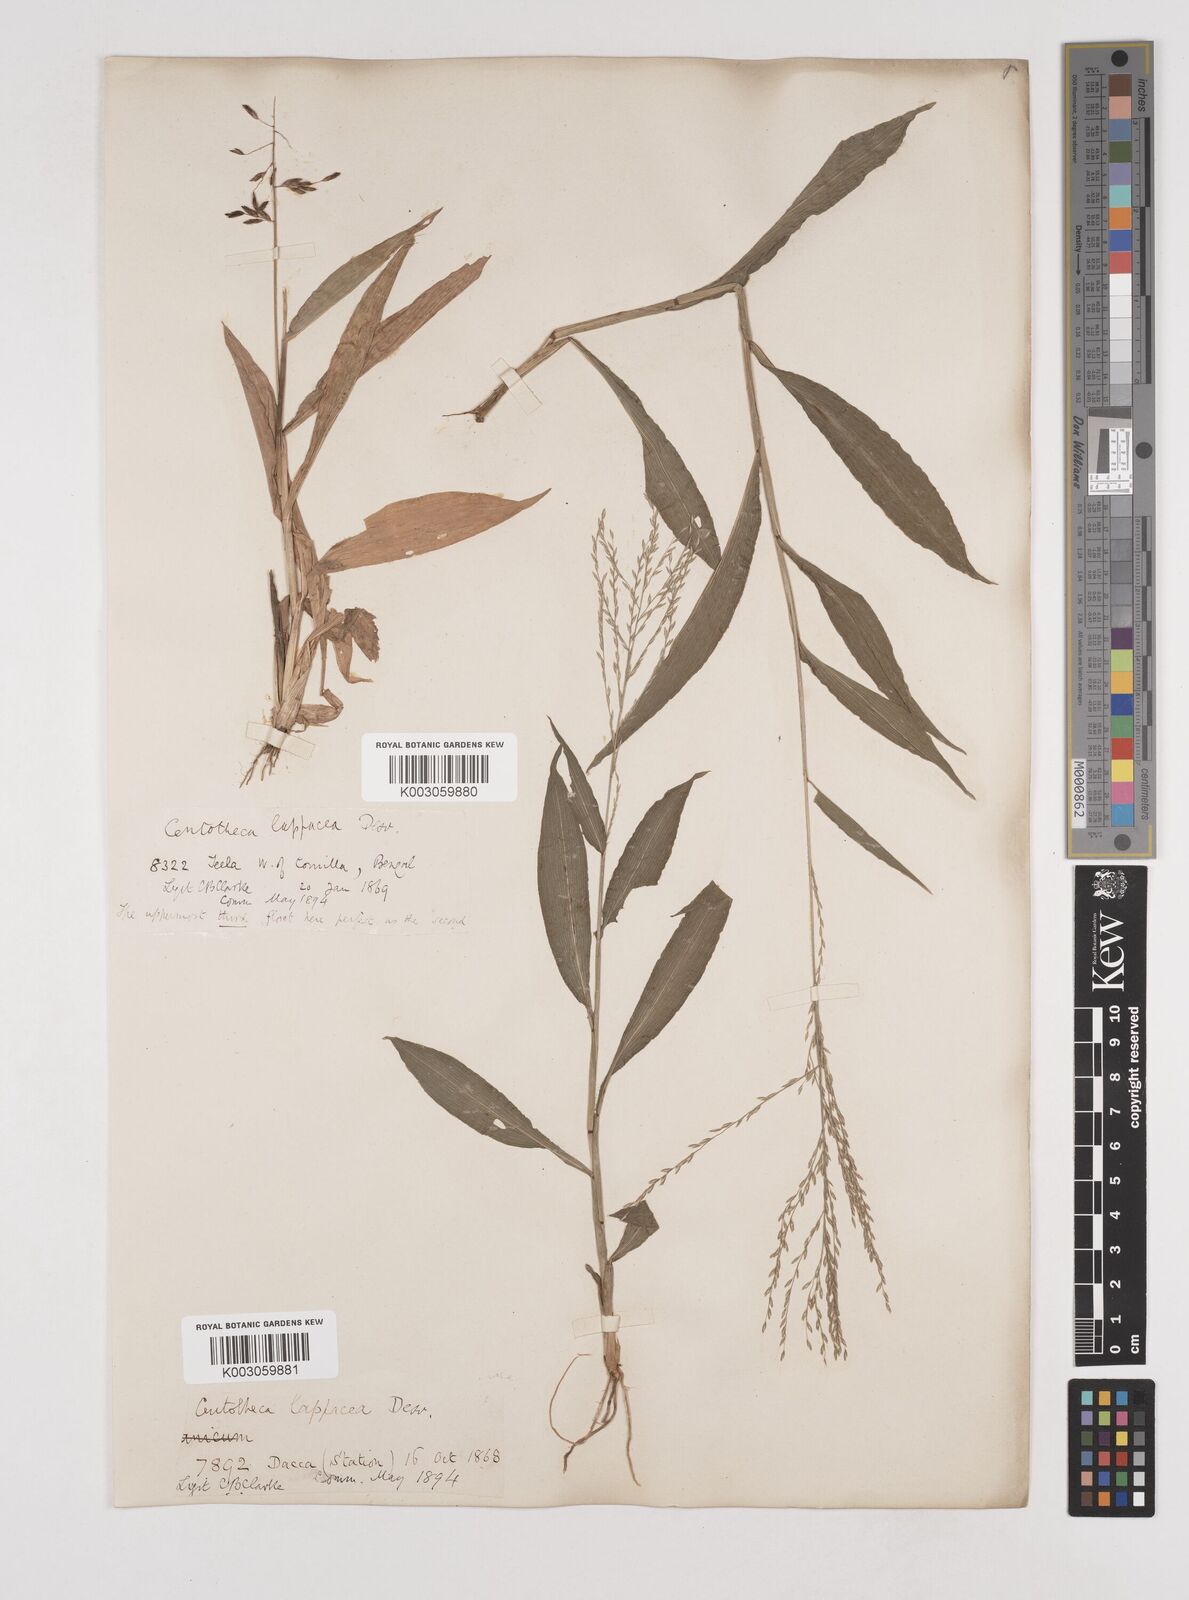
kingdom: Plantae
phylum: Tracheophyta
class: Liliopsida
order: Poales
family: Poaceae
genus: Centotheca
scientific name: Centotheca lappacea
